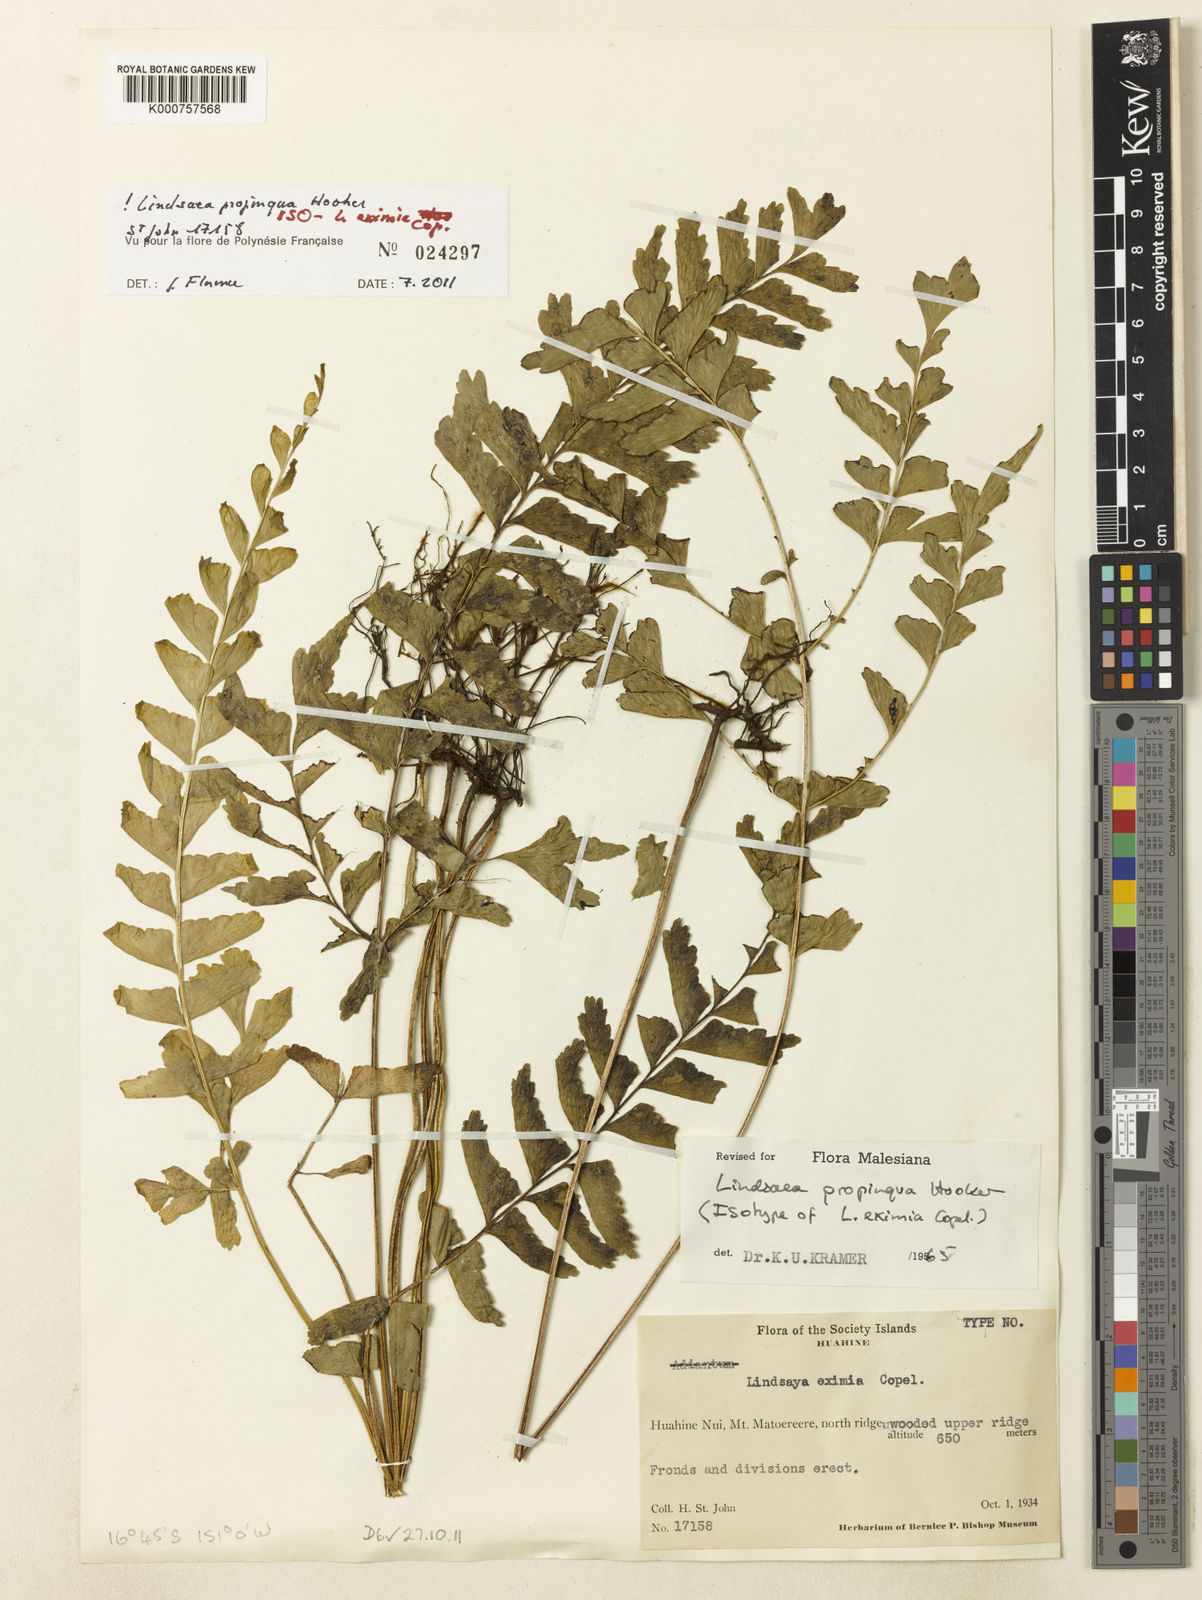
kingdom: Plantae
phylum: Tracheophyta
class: Polypodiopsida
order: Polypodiales
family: Lindsaeaceae
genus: Lindsaea
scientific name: Lindsaea cultrata
